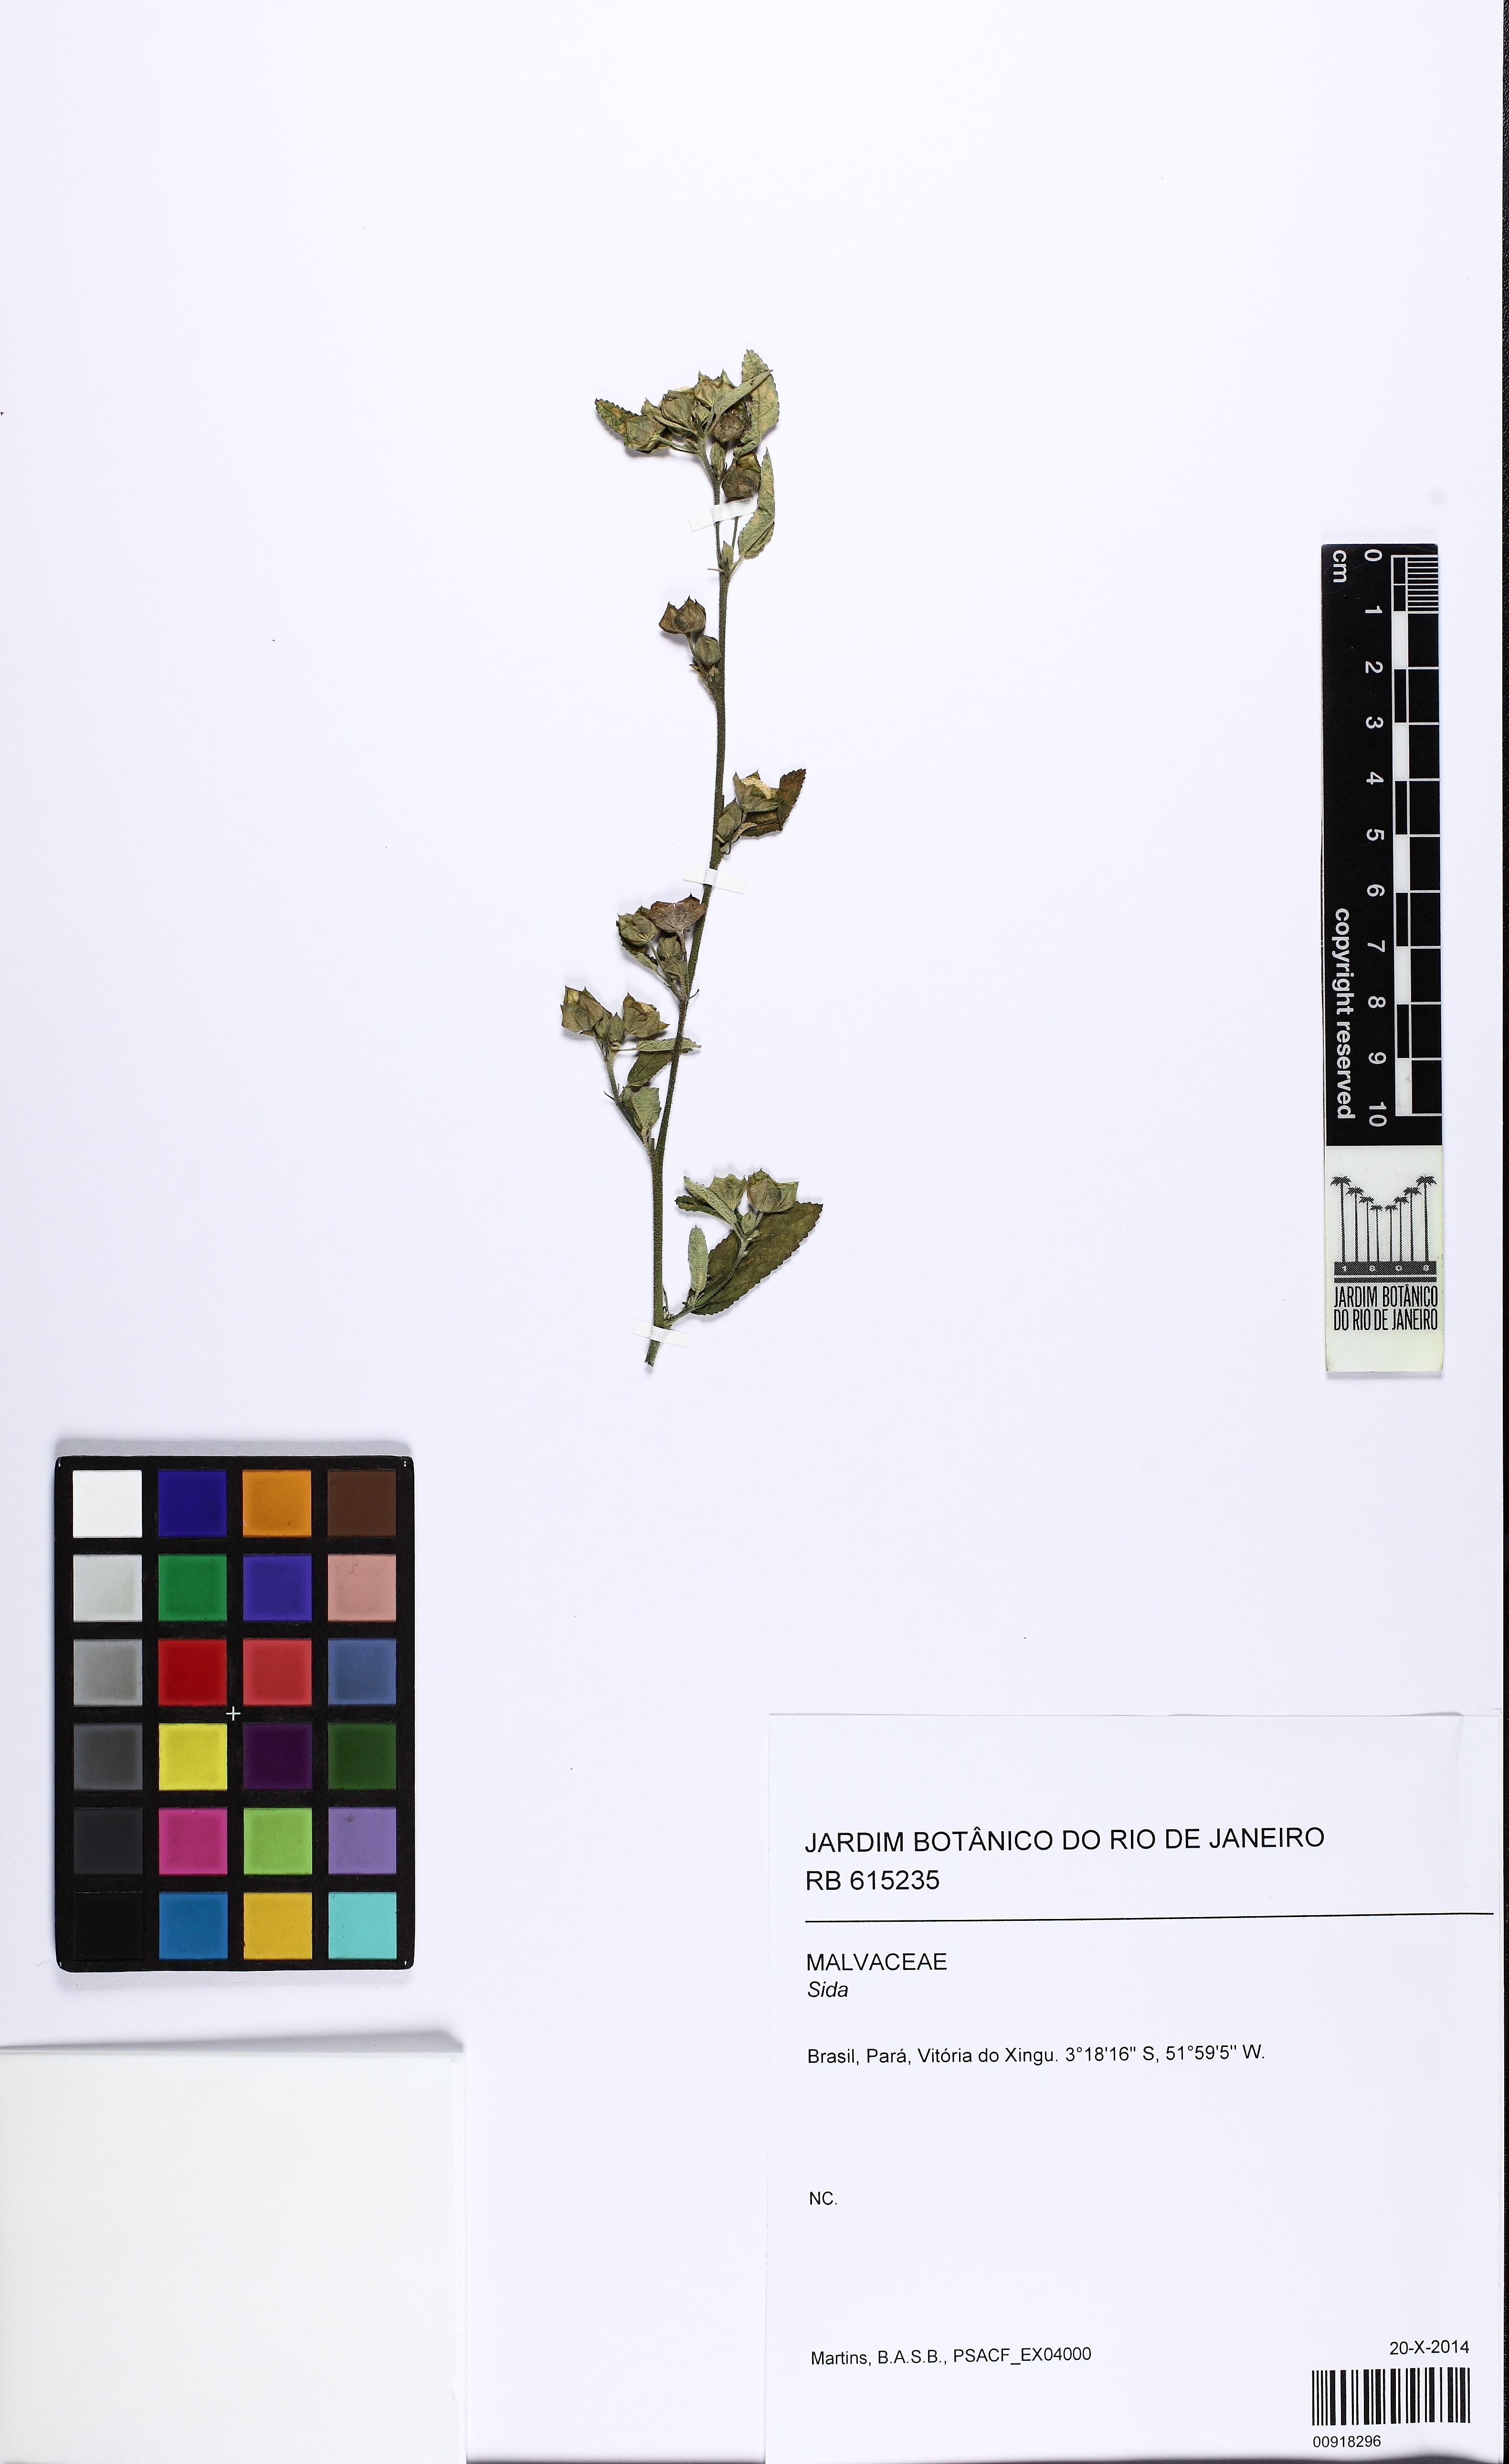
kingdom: Plantae
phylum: Tracheophyta
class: Magnoliopsida
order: Malvales
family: Malvaceae
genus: Sida
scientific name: Sida
